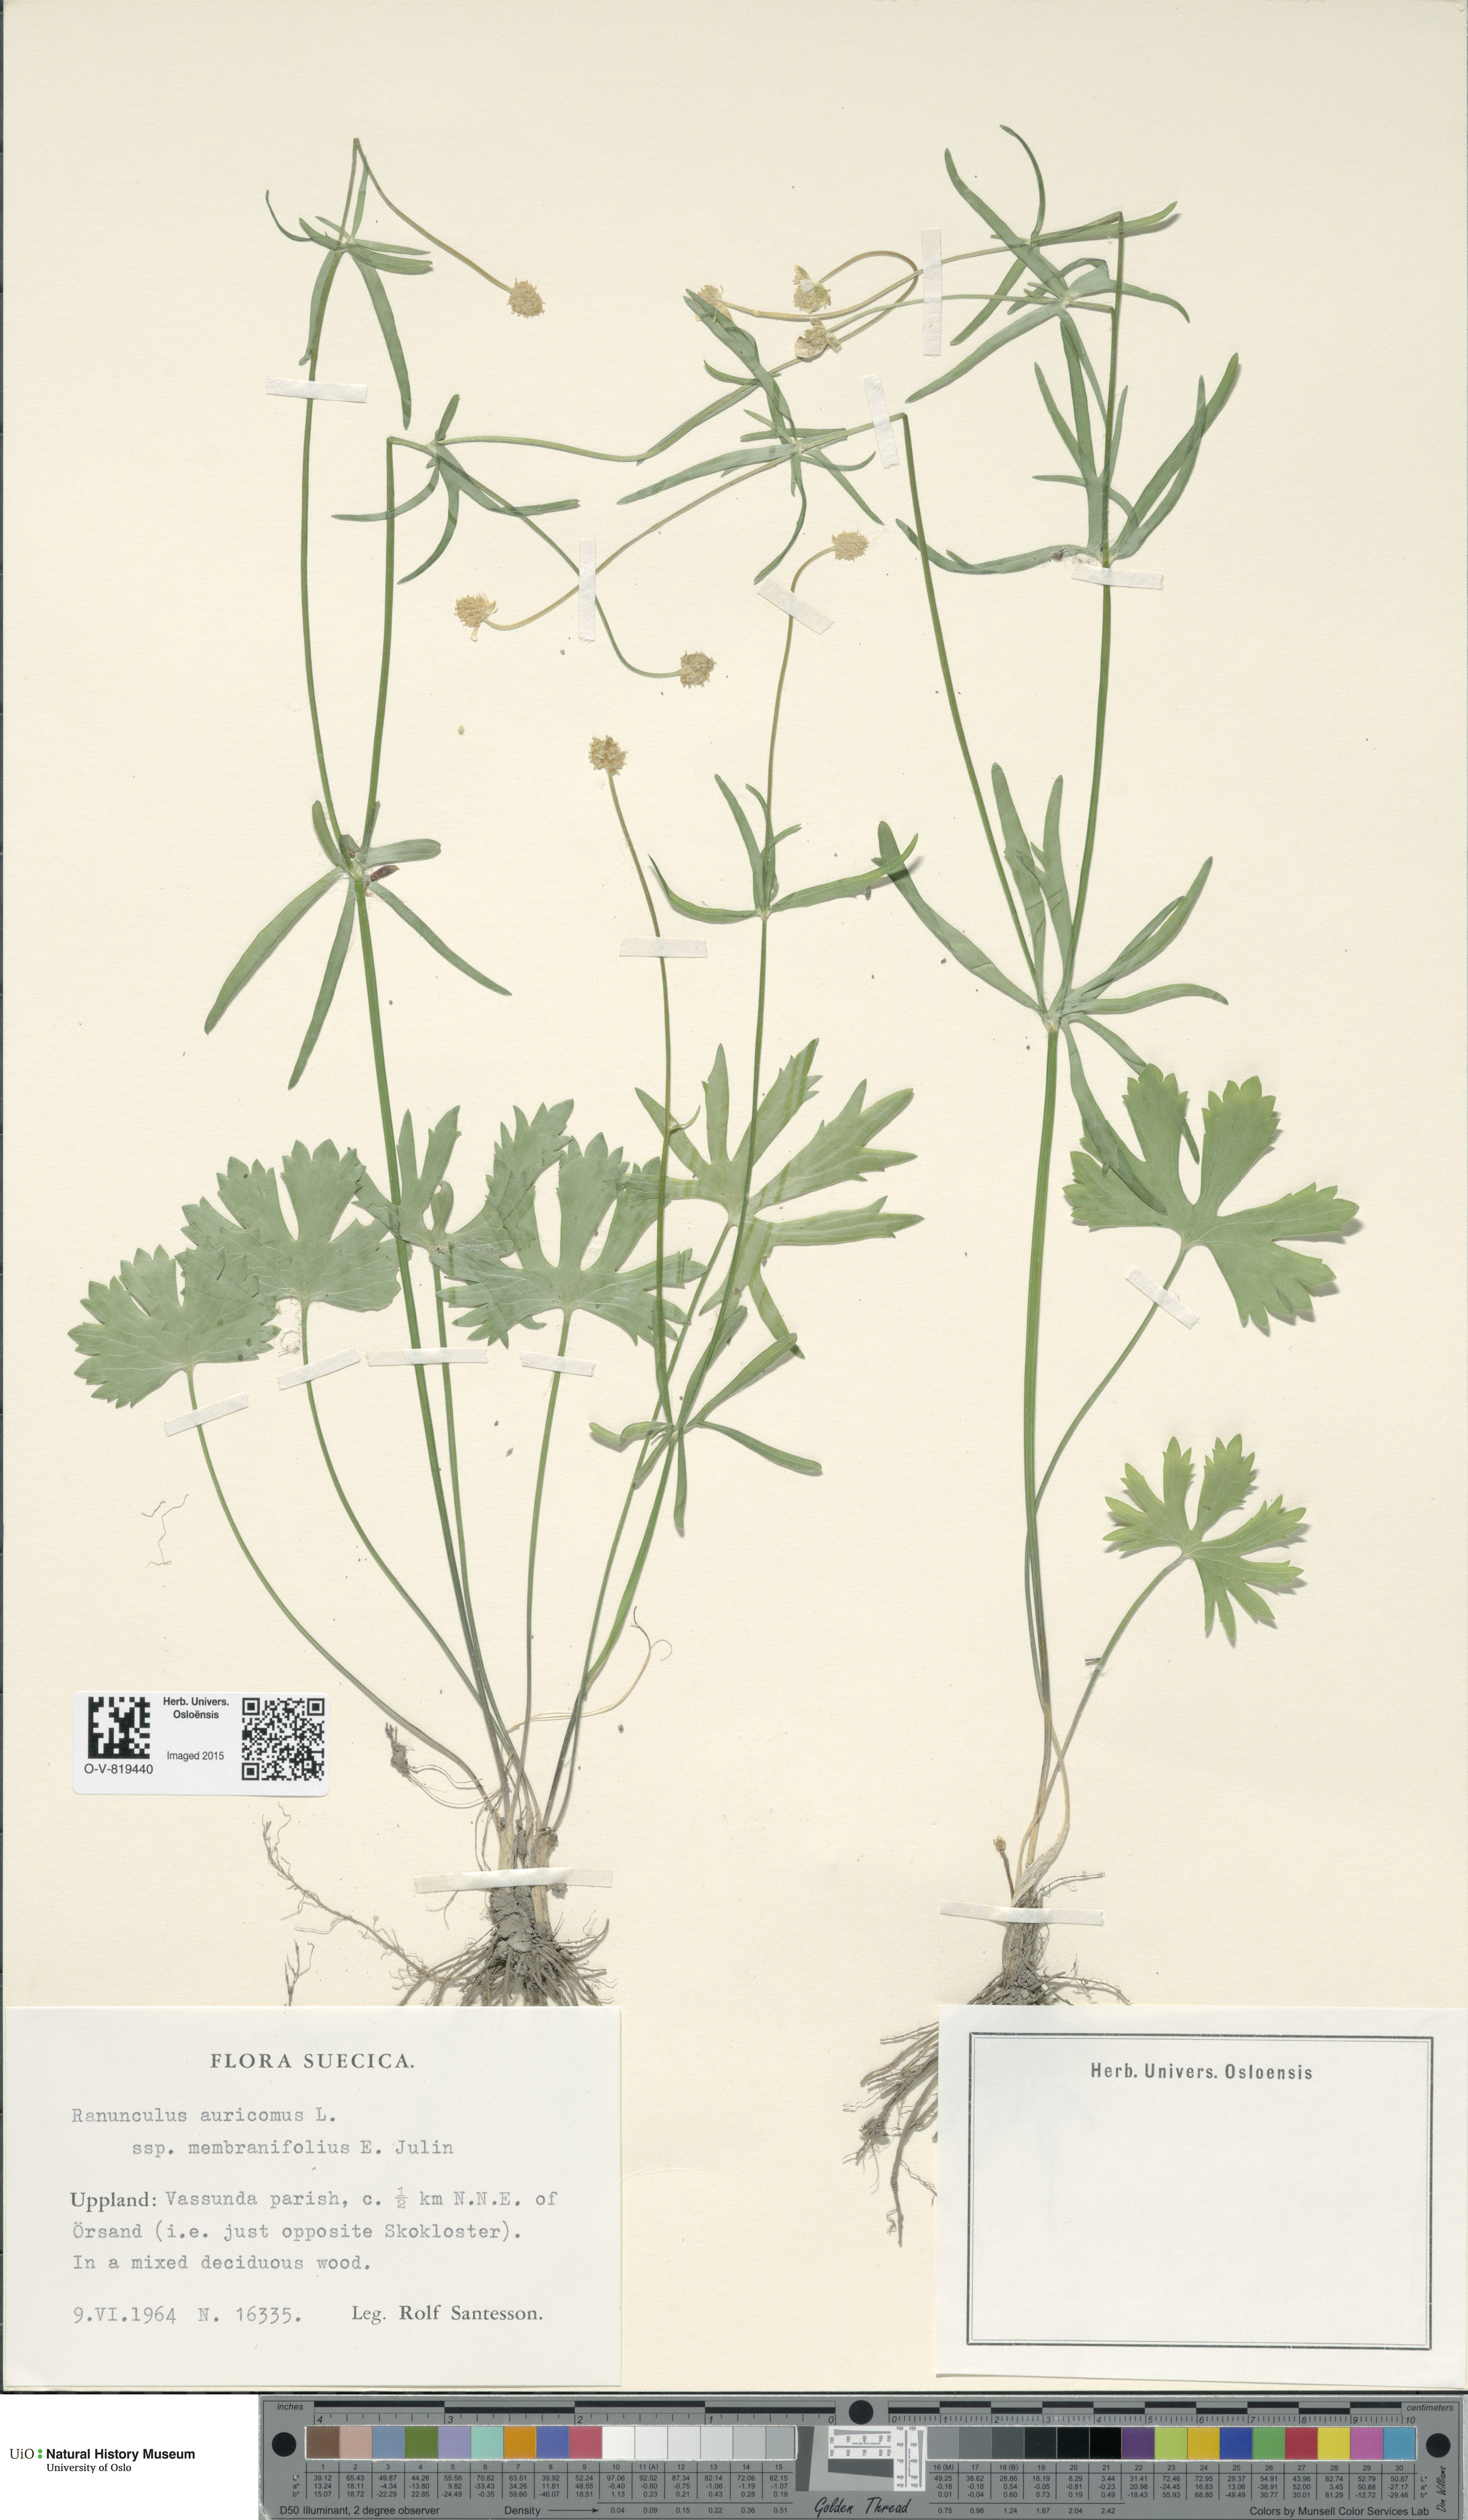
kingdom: Plantae
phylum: Tracheophyta
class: Magnoliopsida
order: Ranunculales
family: Ranunculaceae
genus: Ranunculus
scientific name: Ranunculus pergamentaceus
